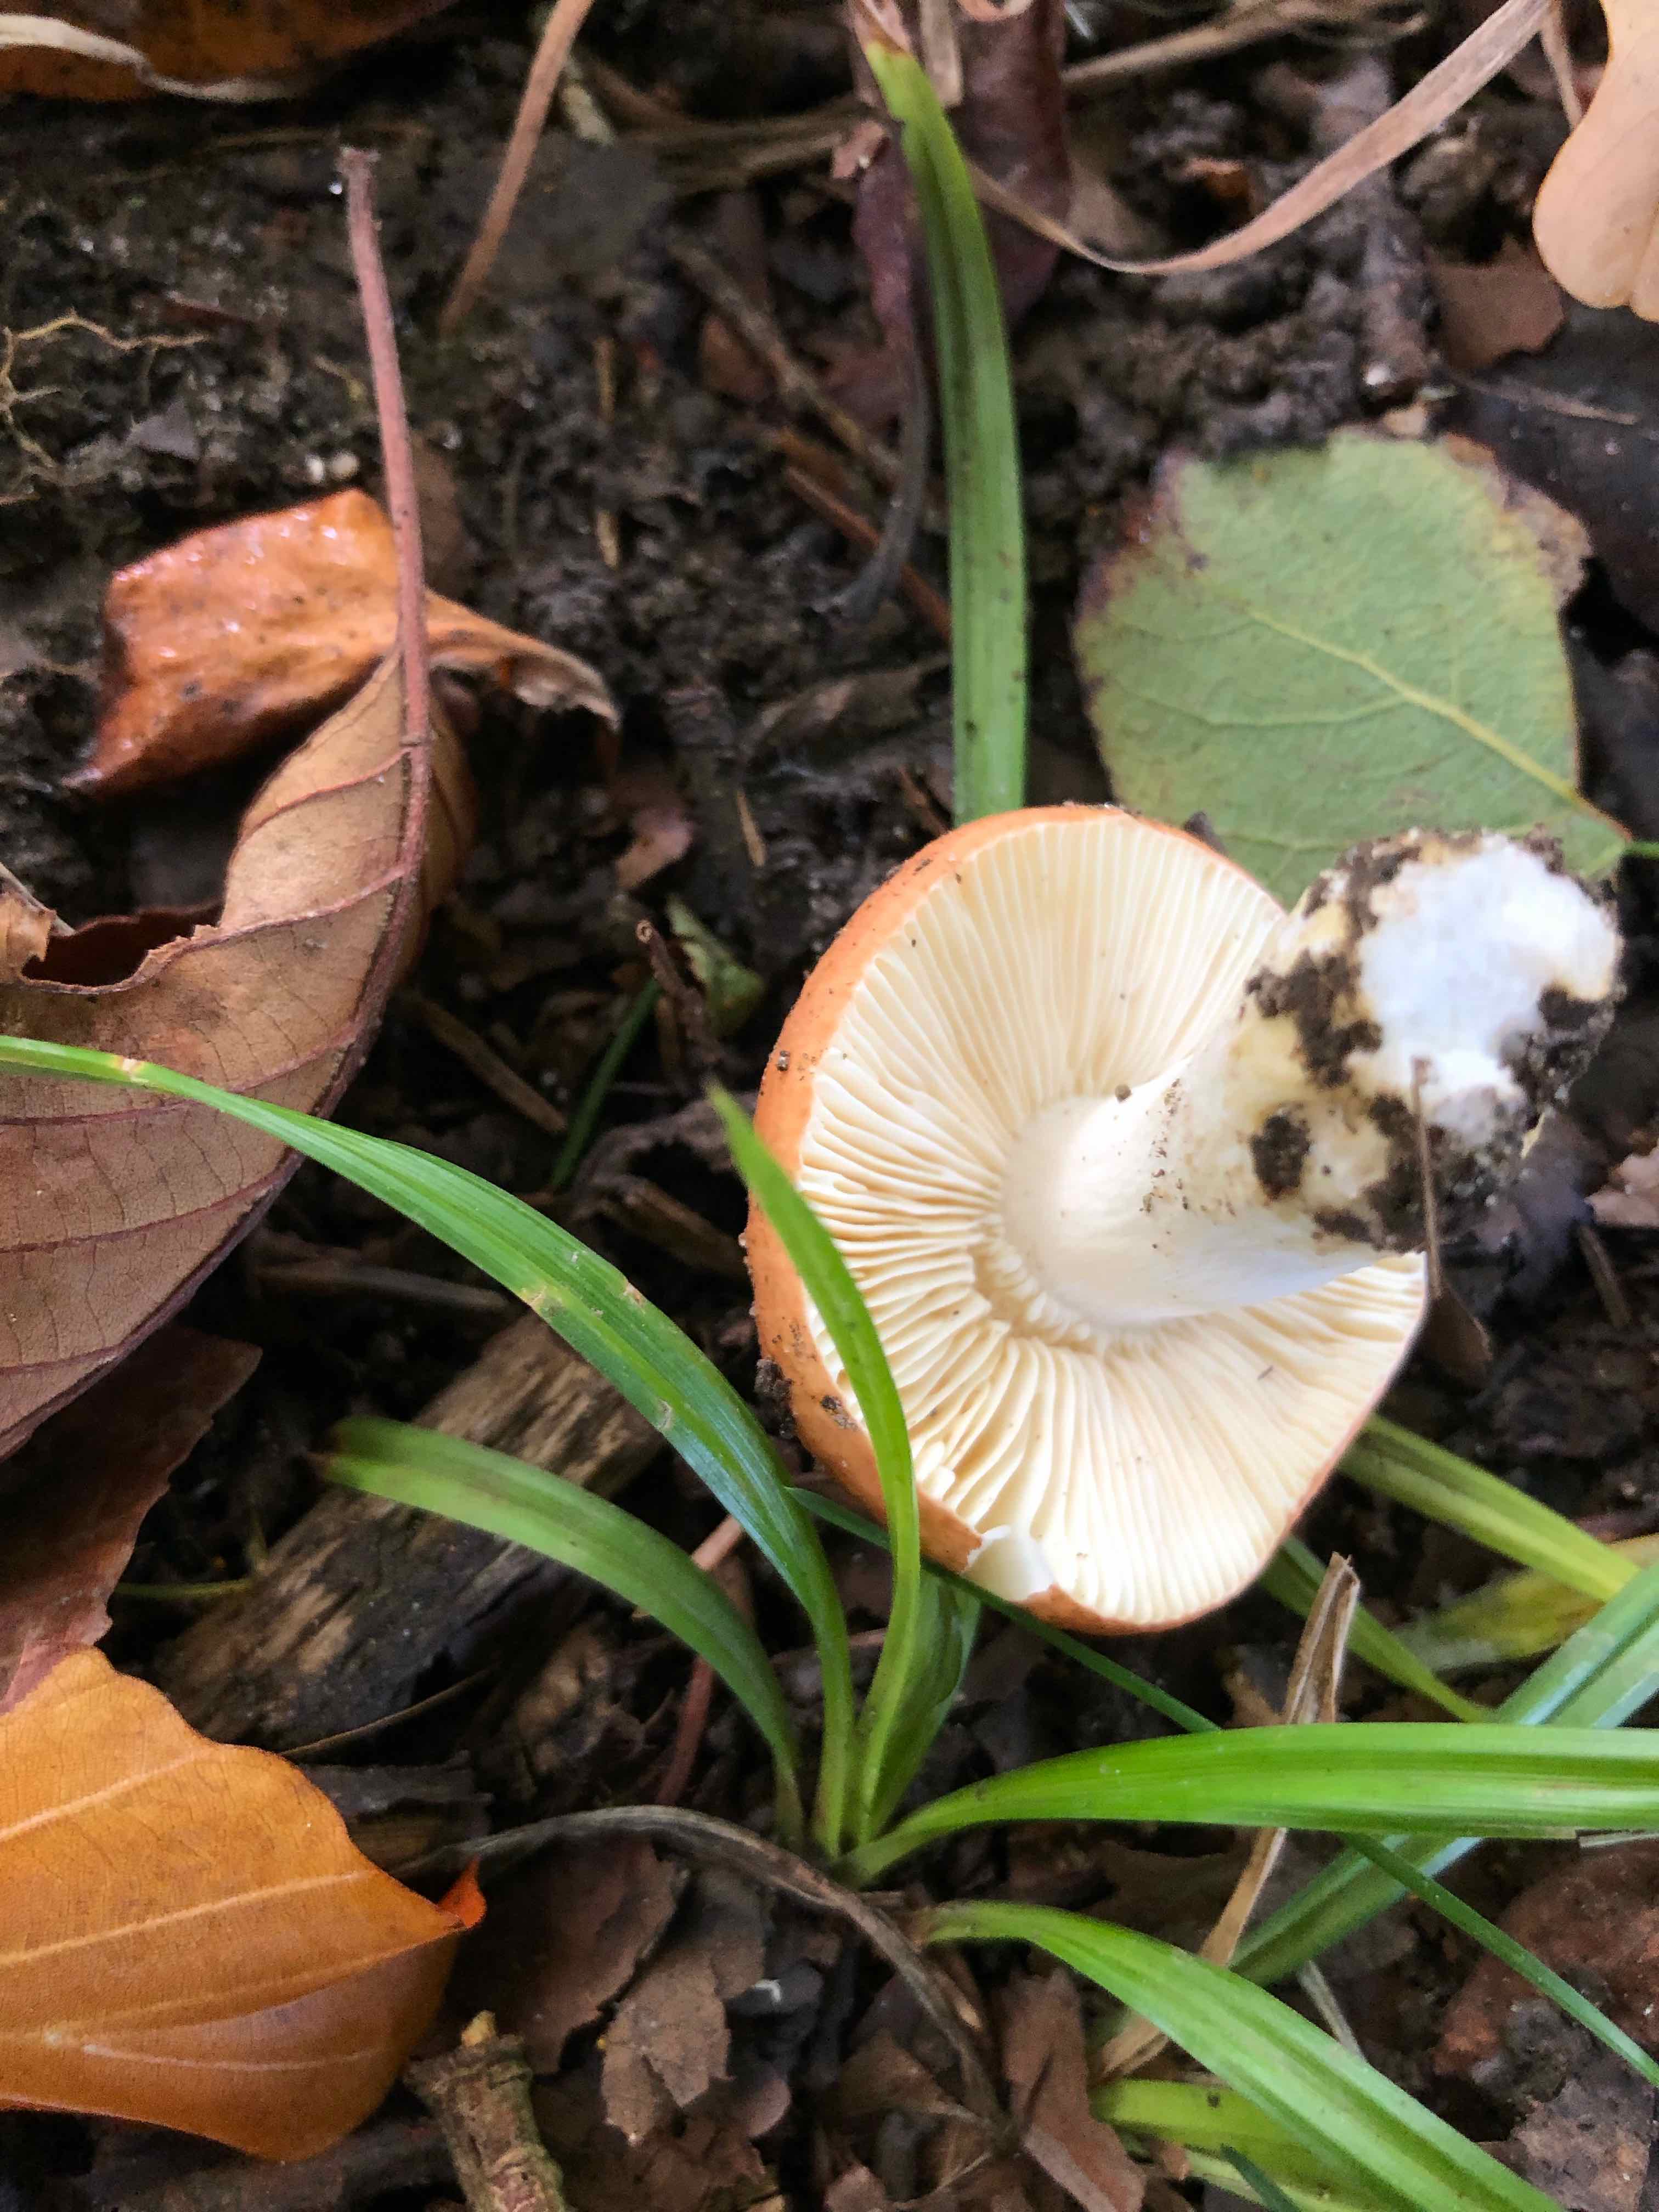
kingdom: Fungi
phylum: Basidiomycota
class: Agaricomycetes
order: Russulales
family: Russulaceae
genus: Russula
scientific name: Russula
